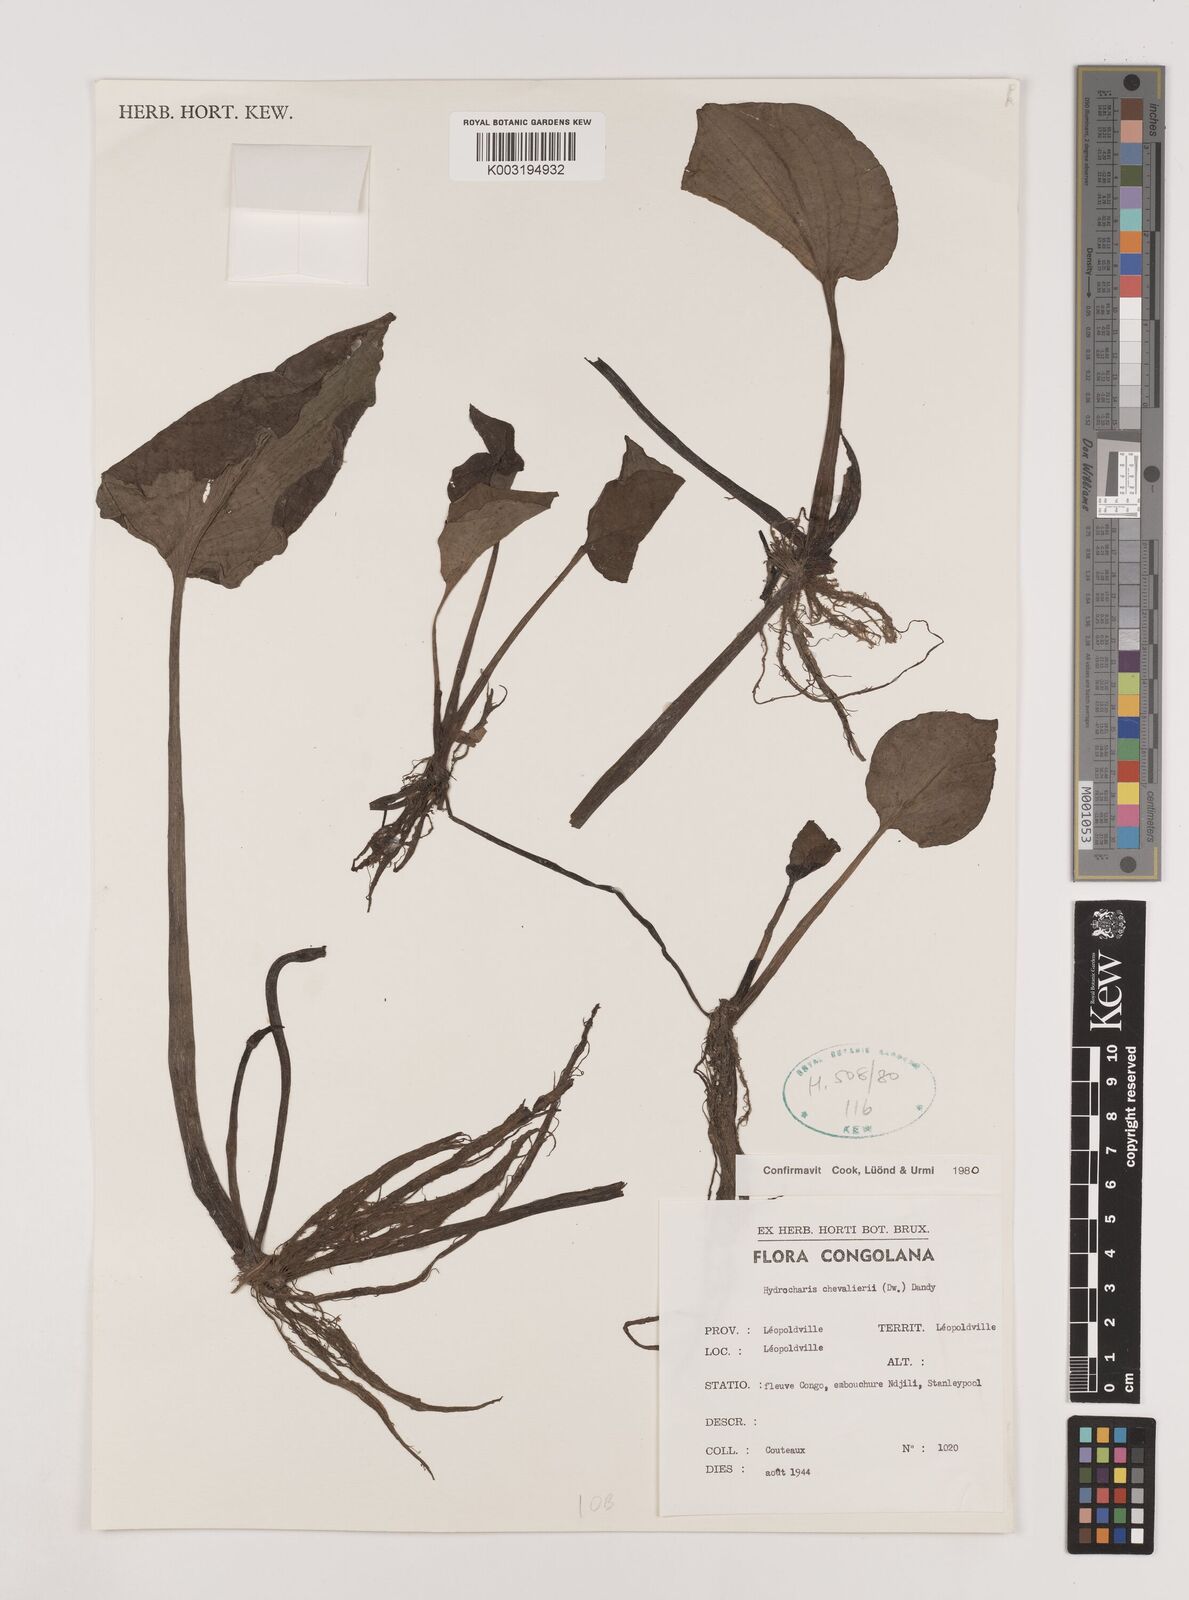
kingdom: Plantae
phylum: Tracheophyta
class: Liliopsida
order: Alismatales
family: Hydrocharitaceae
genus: Hydrocharis
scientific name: Hydrocharis chevalieri
